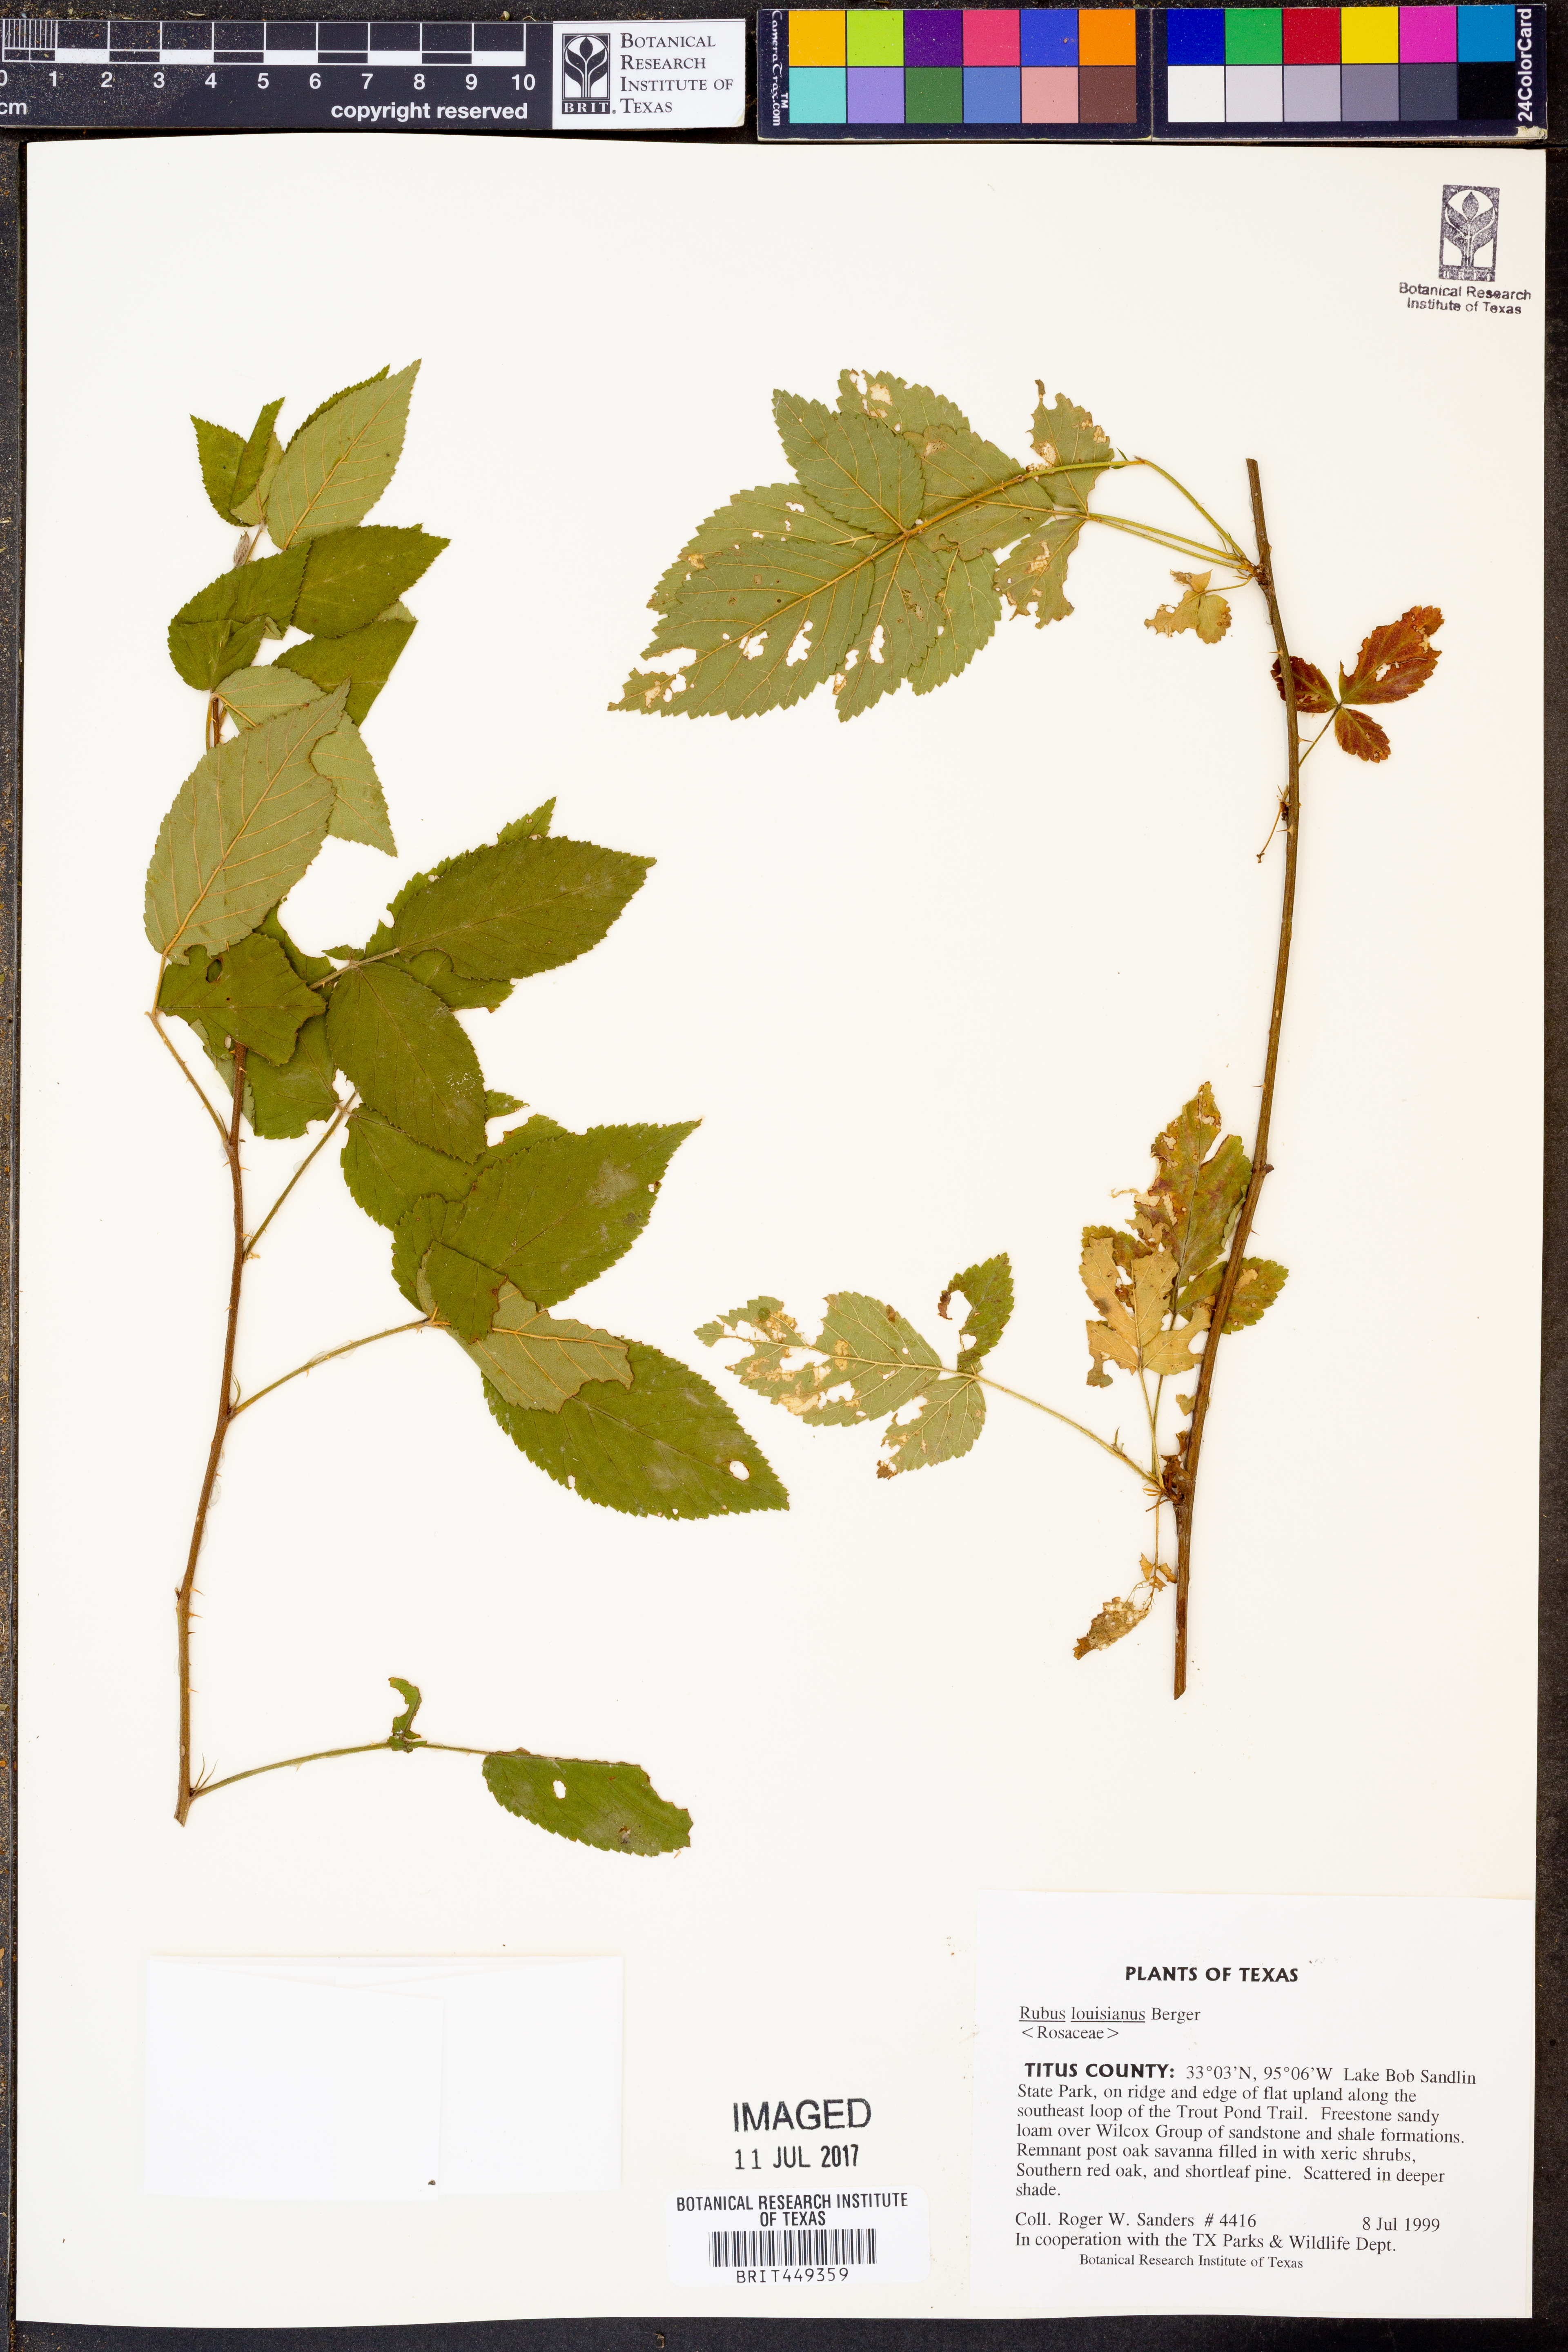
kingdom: Plantae
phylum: Tracheophyta
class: Magnoliopsida
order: Rosales
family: Rosaceae
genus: Rubus
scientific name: Rubus argutus
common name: Sawtooth blackberry
